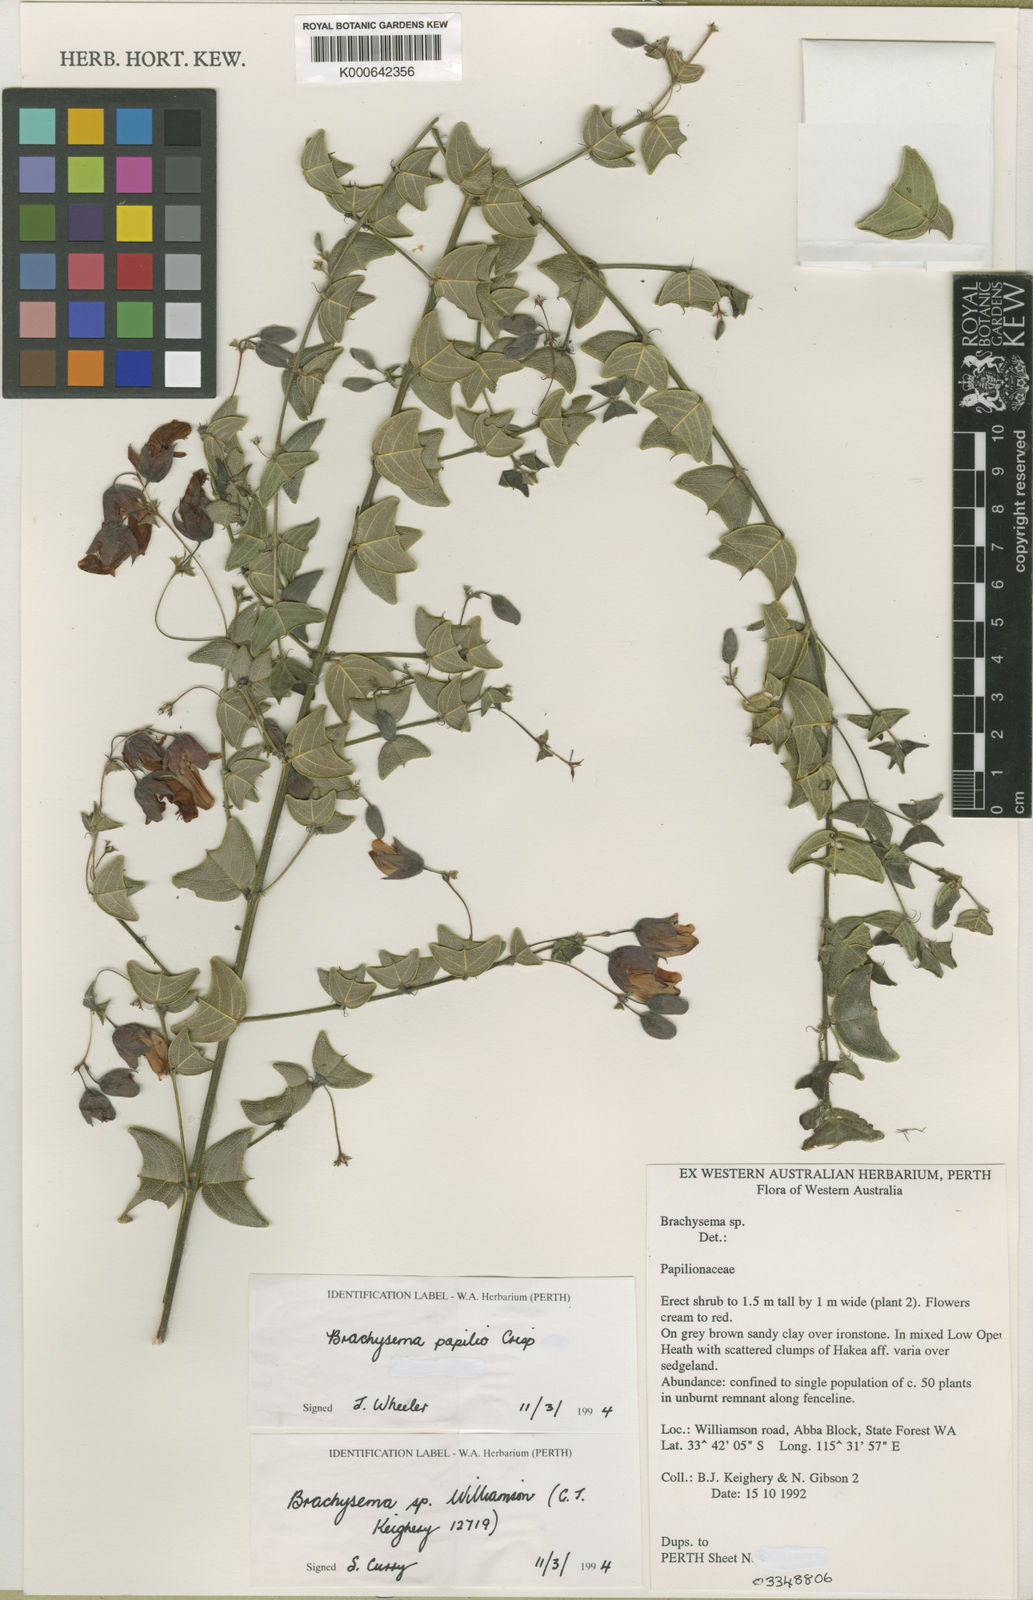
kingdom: Plantae
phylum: Tracheophyta
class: Magnoliopsida
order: Fabales
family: Fabaceae
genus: Gastrolobium
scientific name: Gastrolobium papilio
